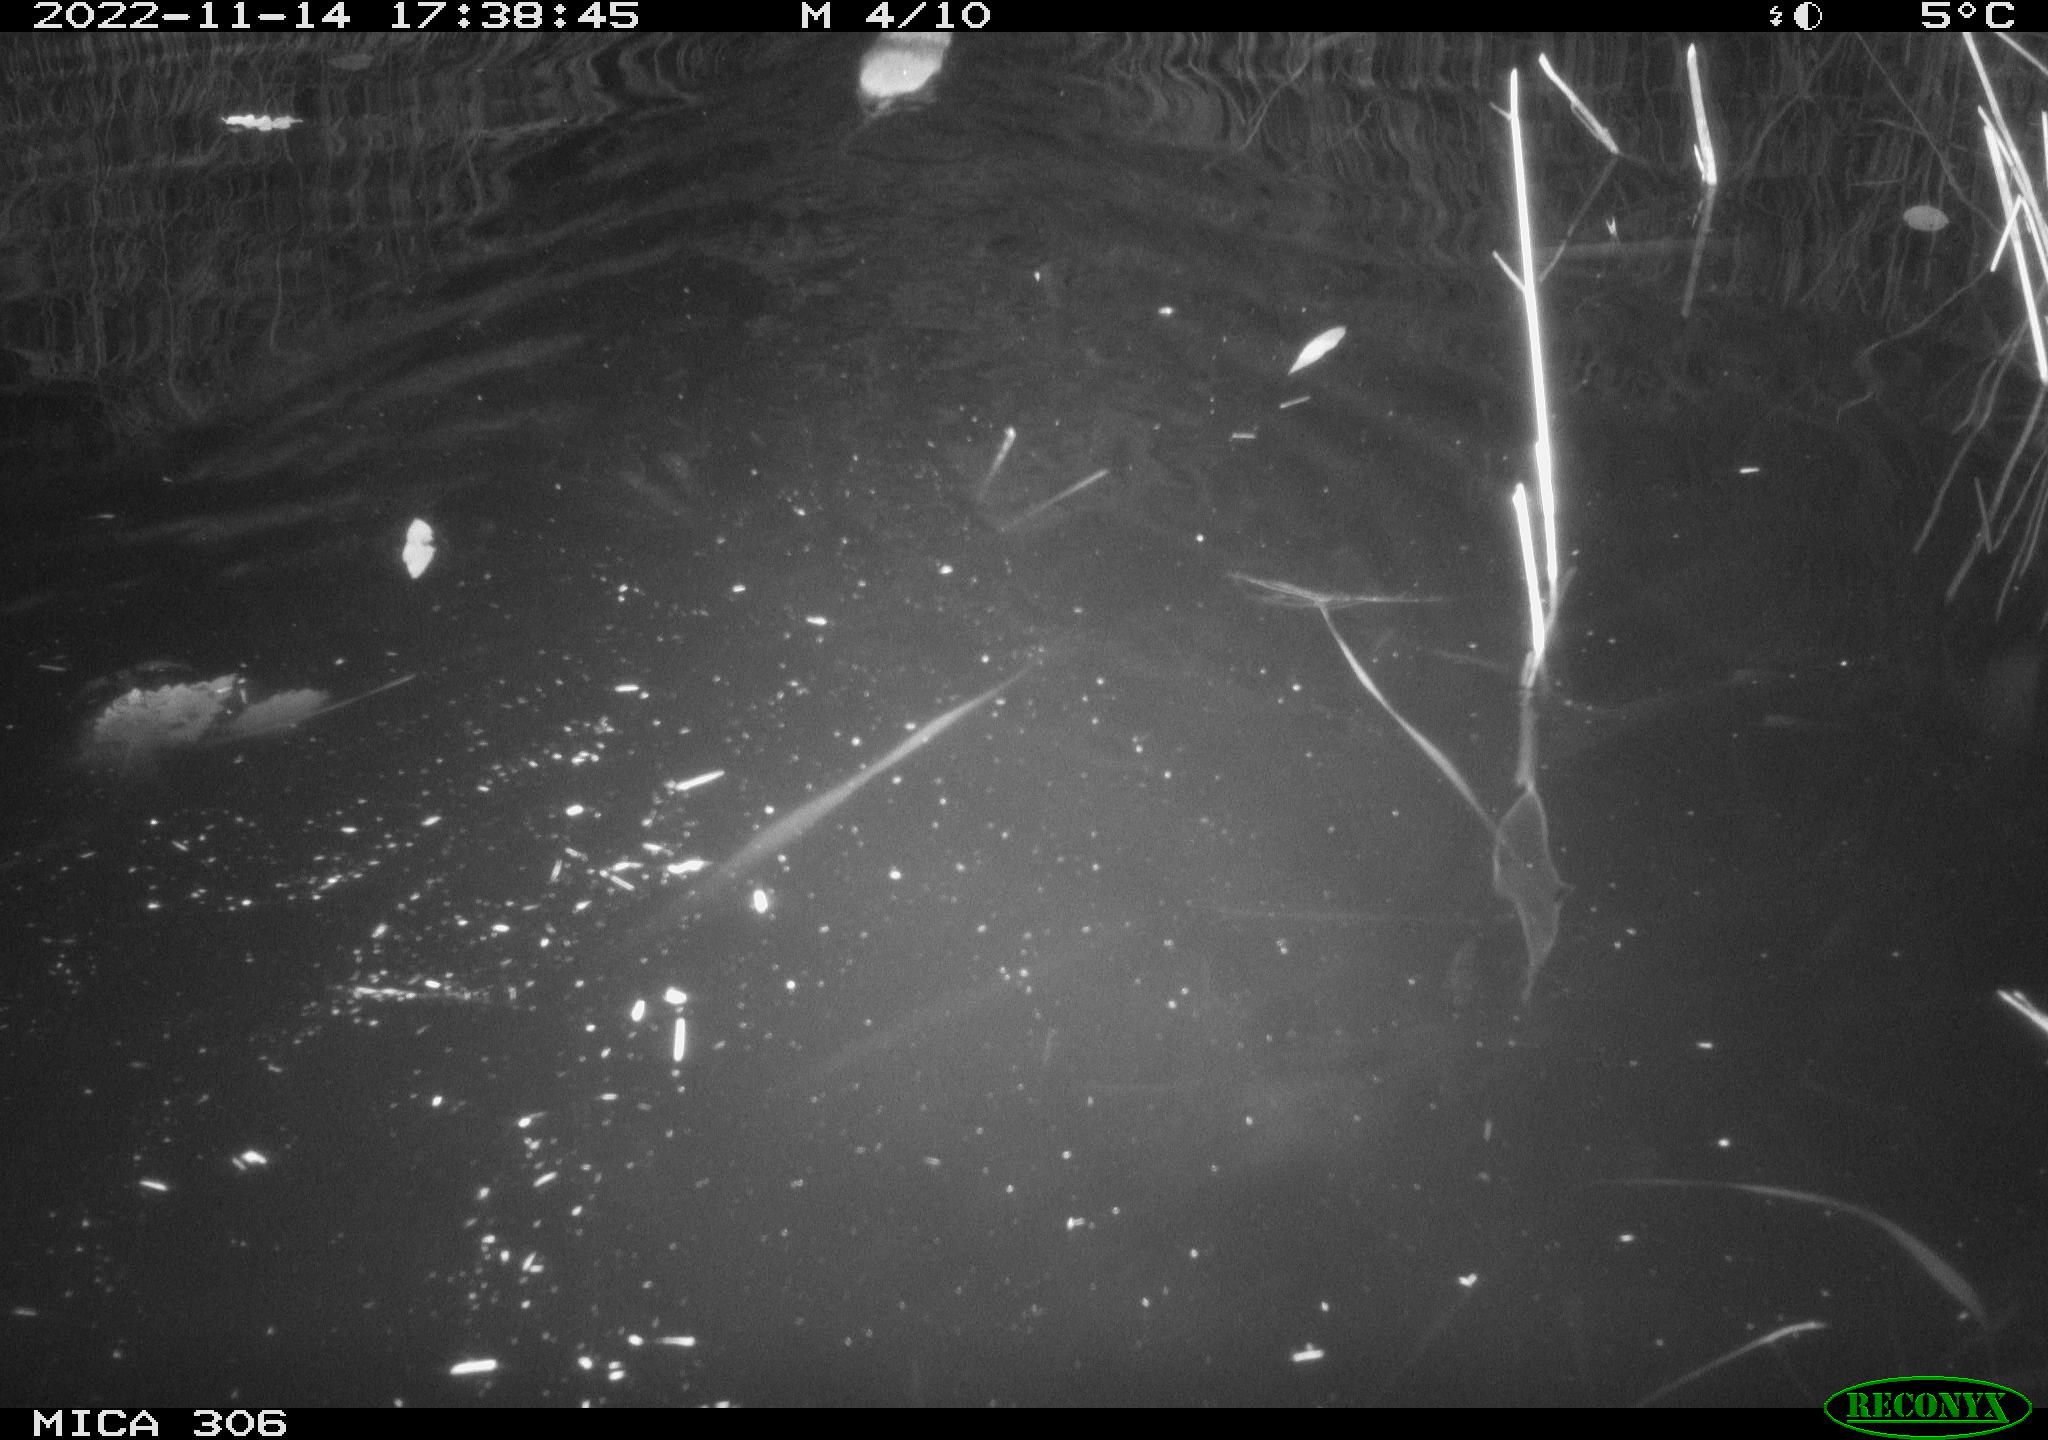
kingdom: Animalia
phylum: Chordata
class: Mammalia
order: Rodentia
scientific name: Rodentia
